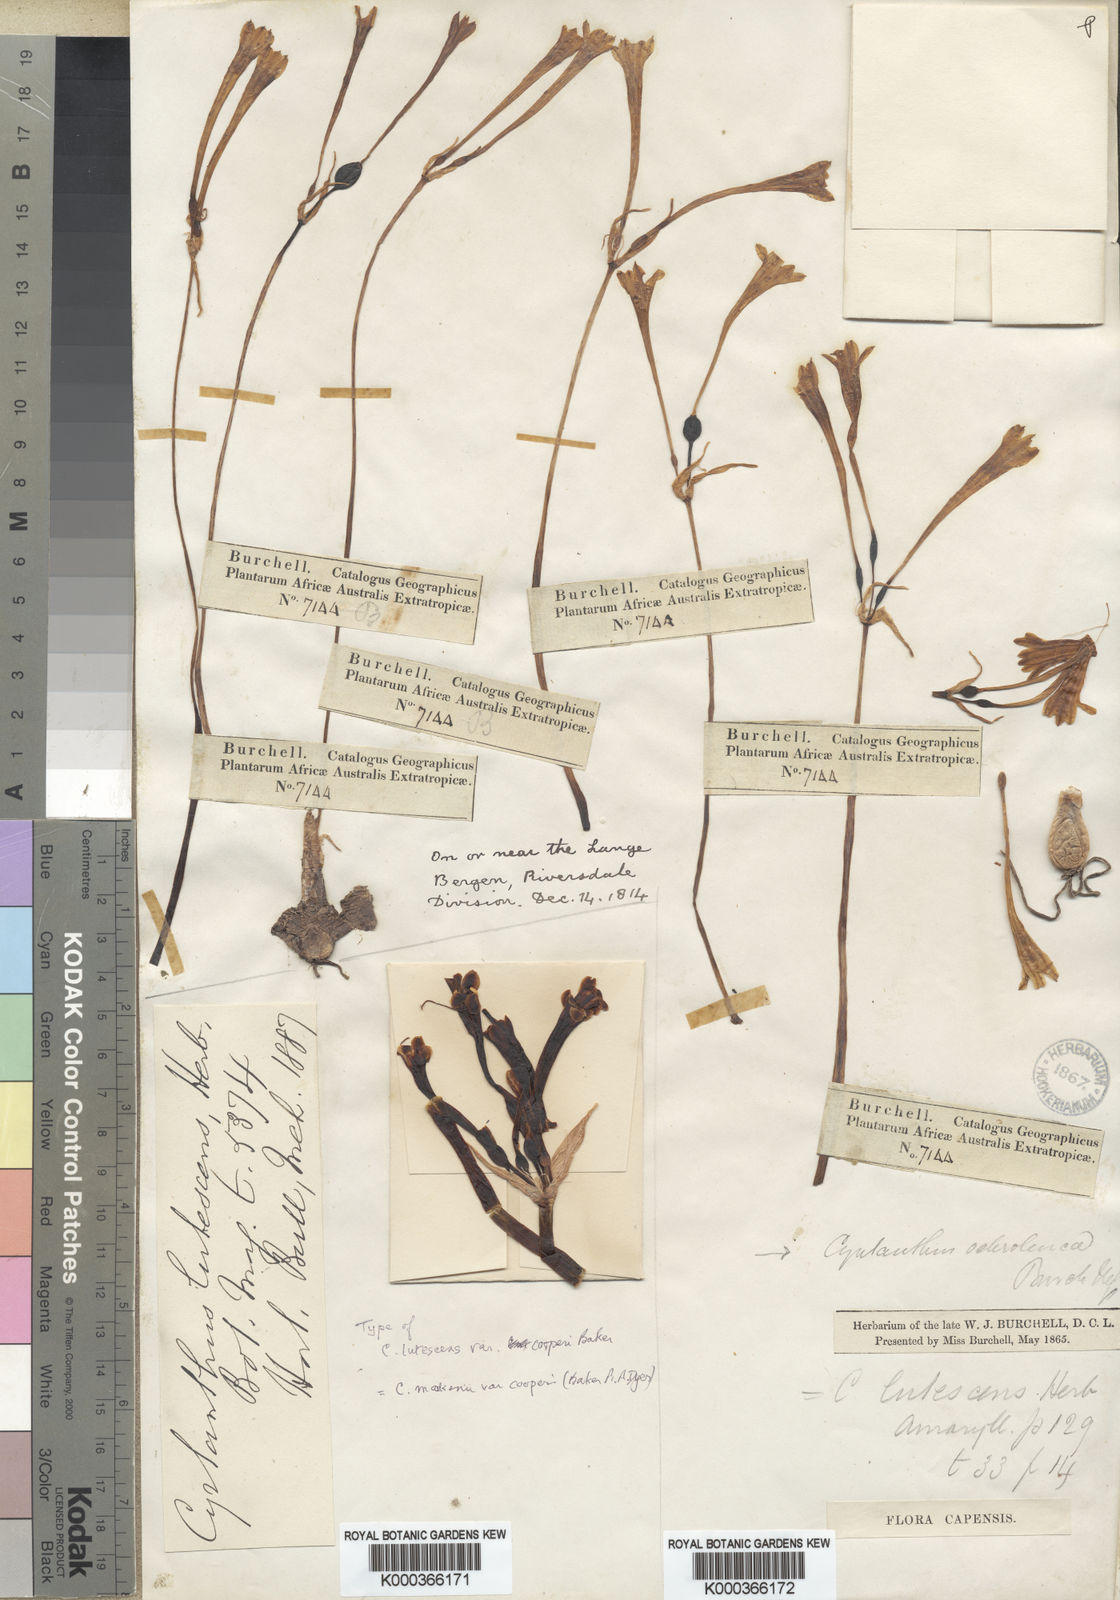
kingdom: Plantae
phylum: Tracheophyta
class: Liliopsida
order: Asparagales
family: Amaryllidaceae
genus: Cyrtanthus
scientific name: Cyrtanthus mackenii
